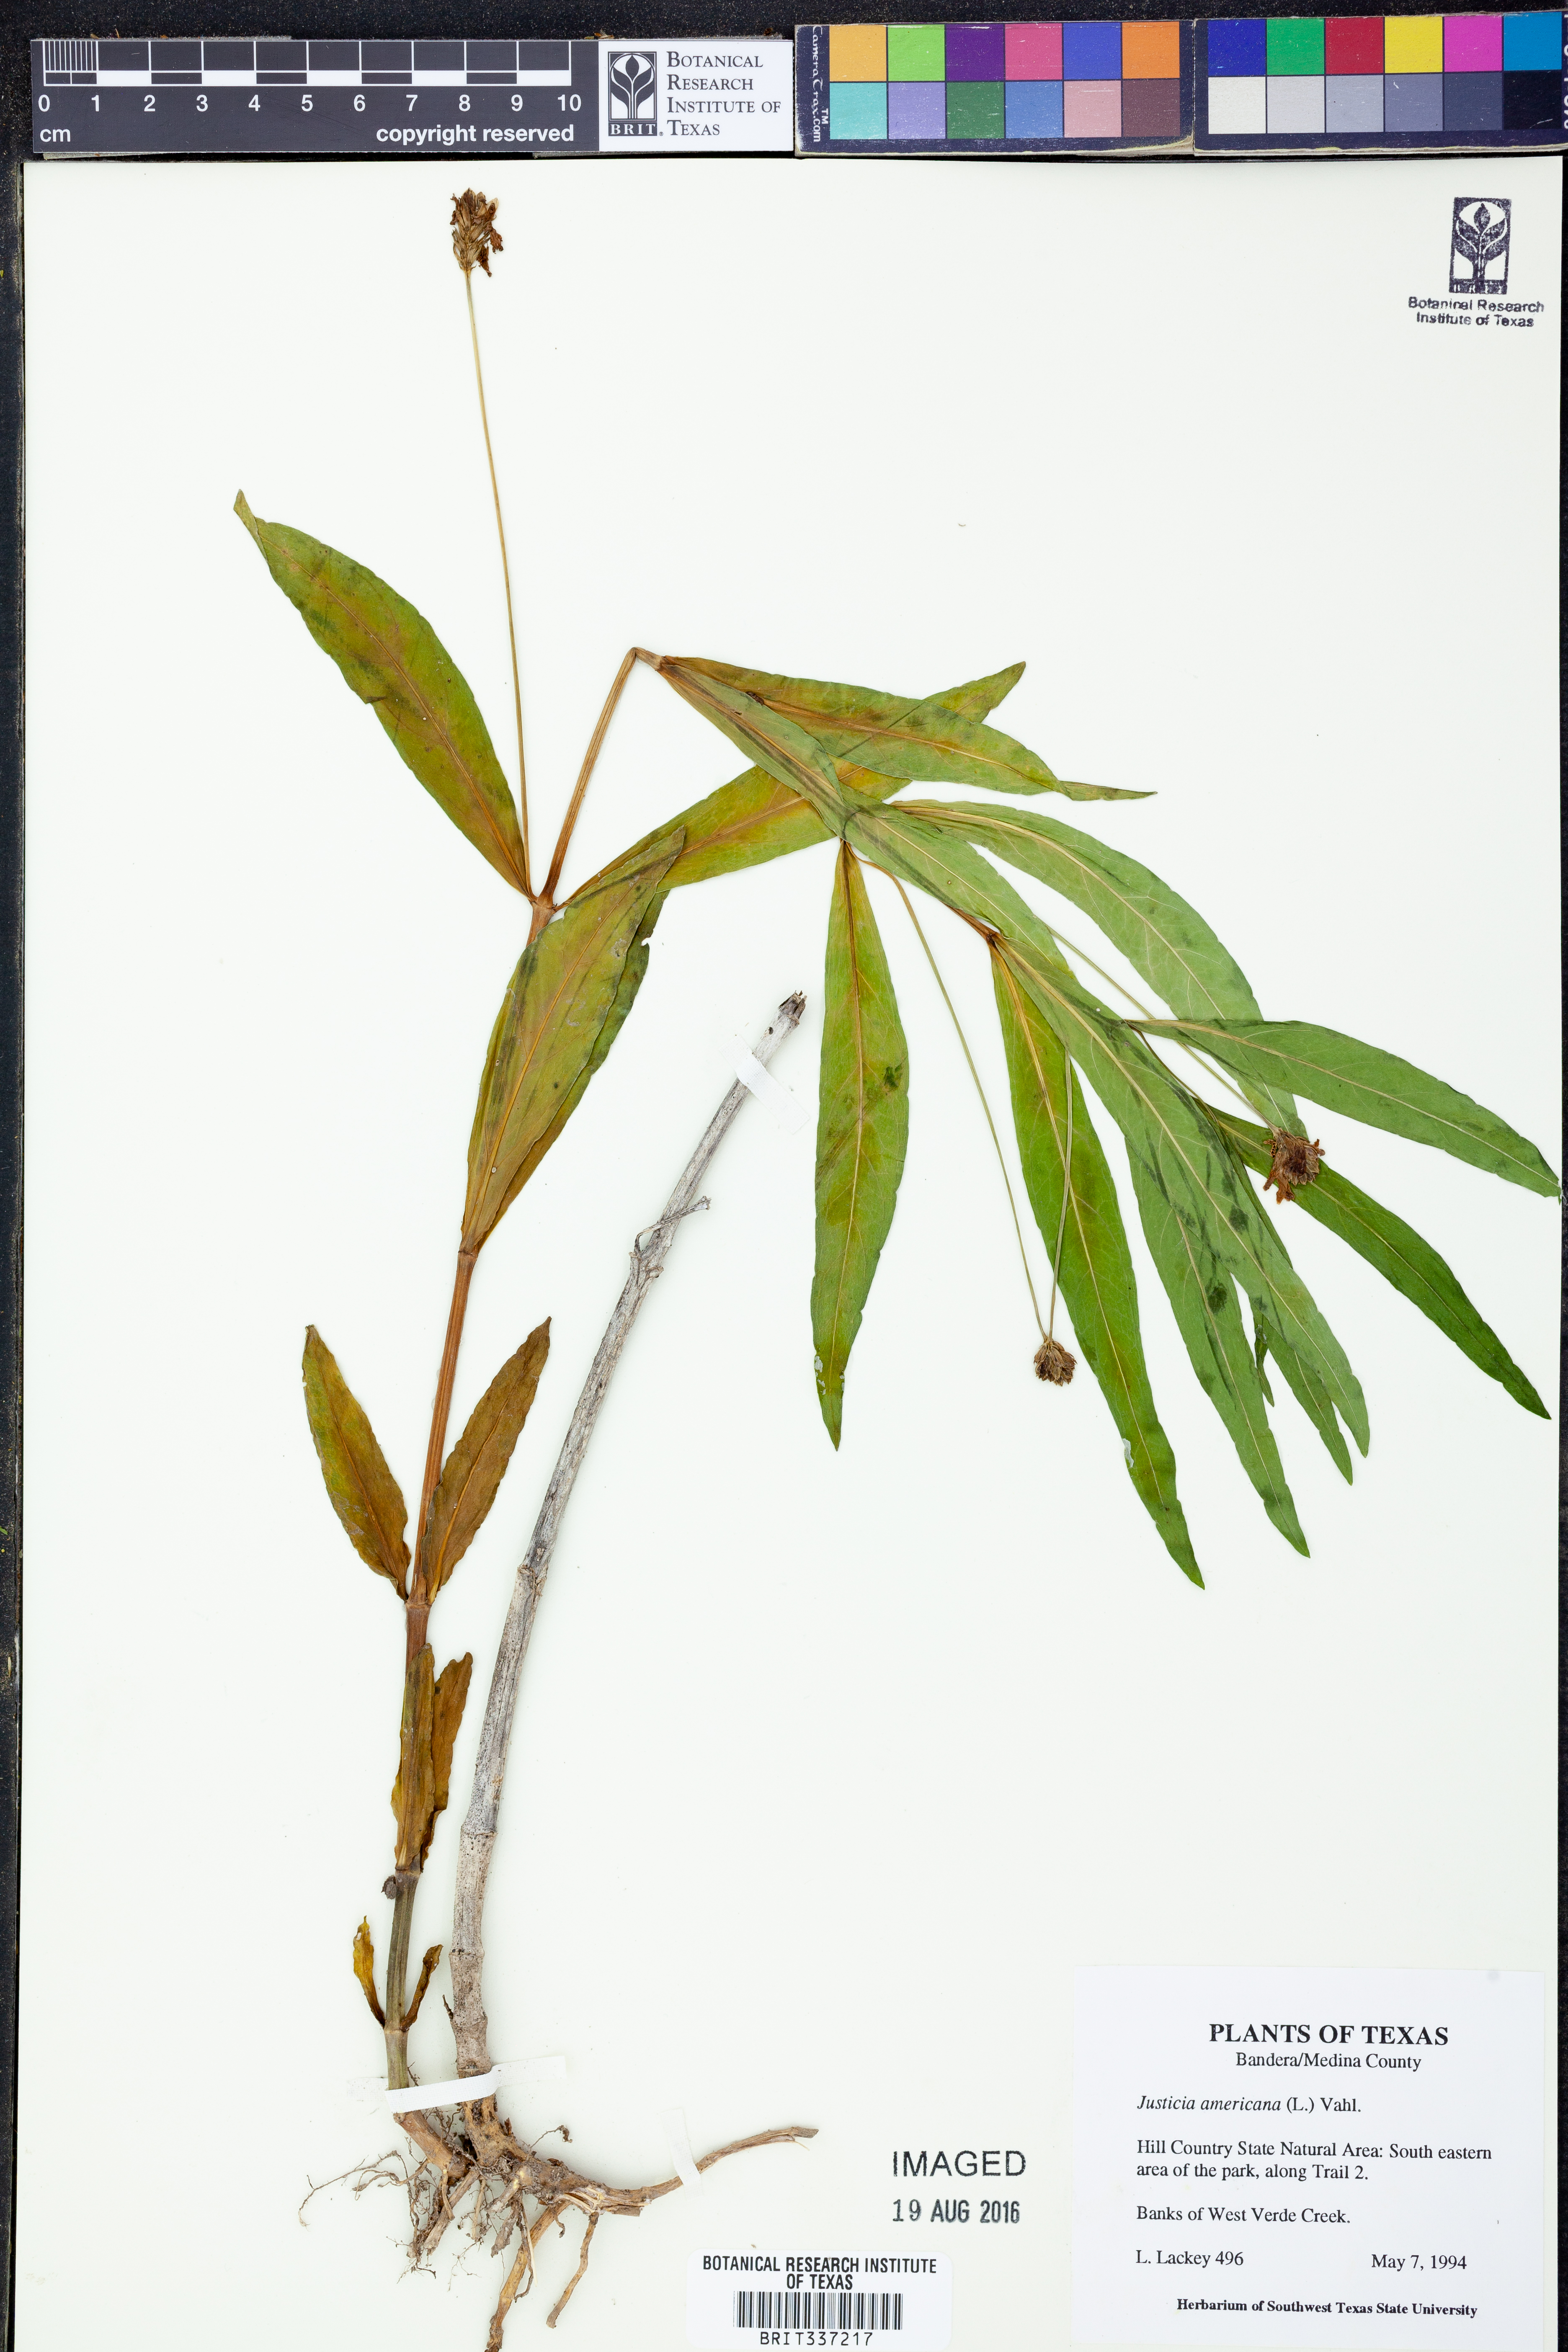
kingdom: Plantae
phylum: Tracheophyta
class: Magnoliopsida
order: Lamiales
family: Acanthaceae
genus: Dianthera
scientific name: Dianthera americana
